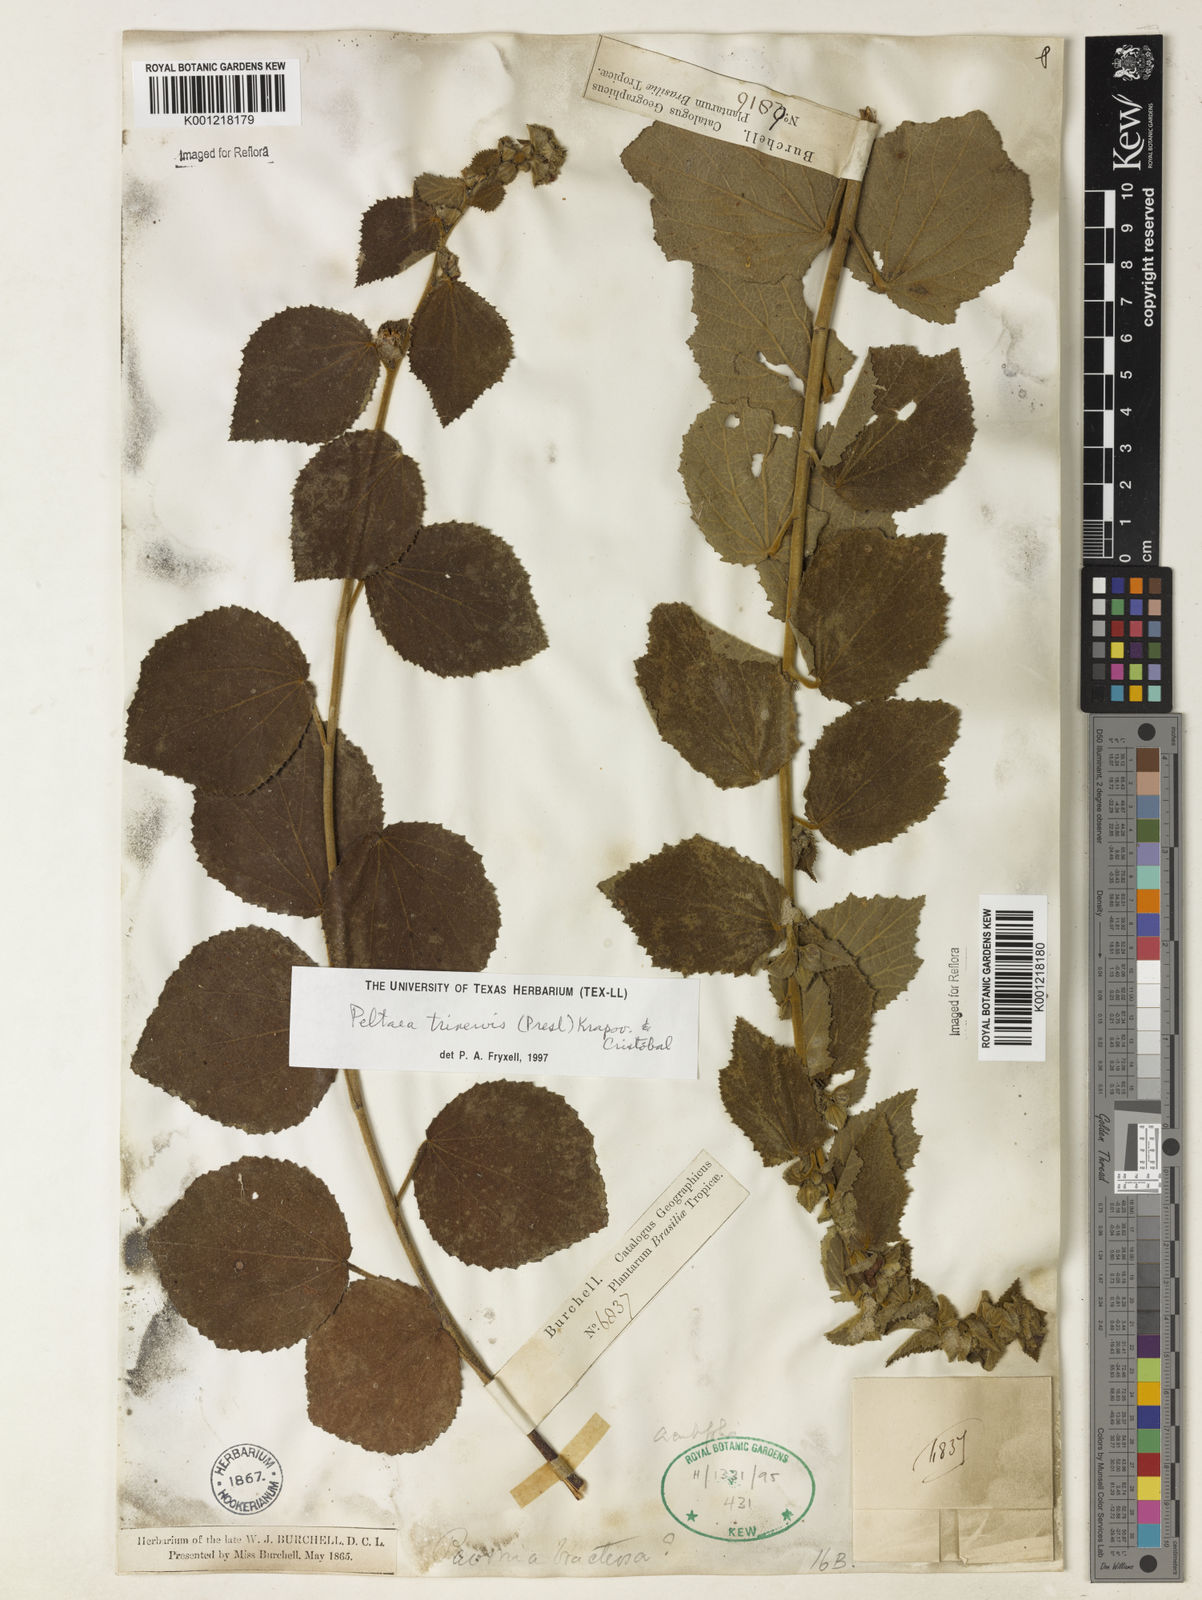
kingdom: Plantae
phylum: Tracheophyta
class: Magnoliopsida
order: Malvales
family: Malvaceae
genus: Peltaea
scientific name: Peltaea
